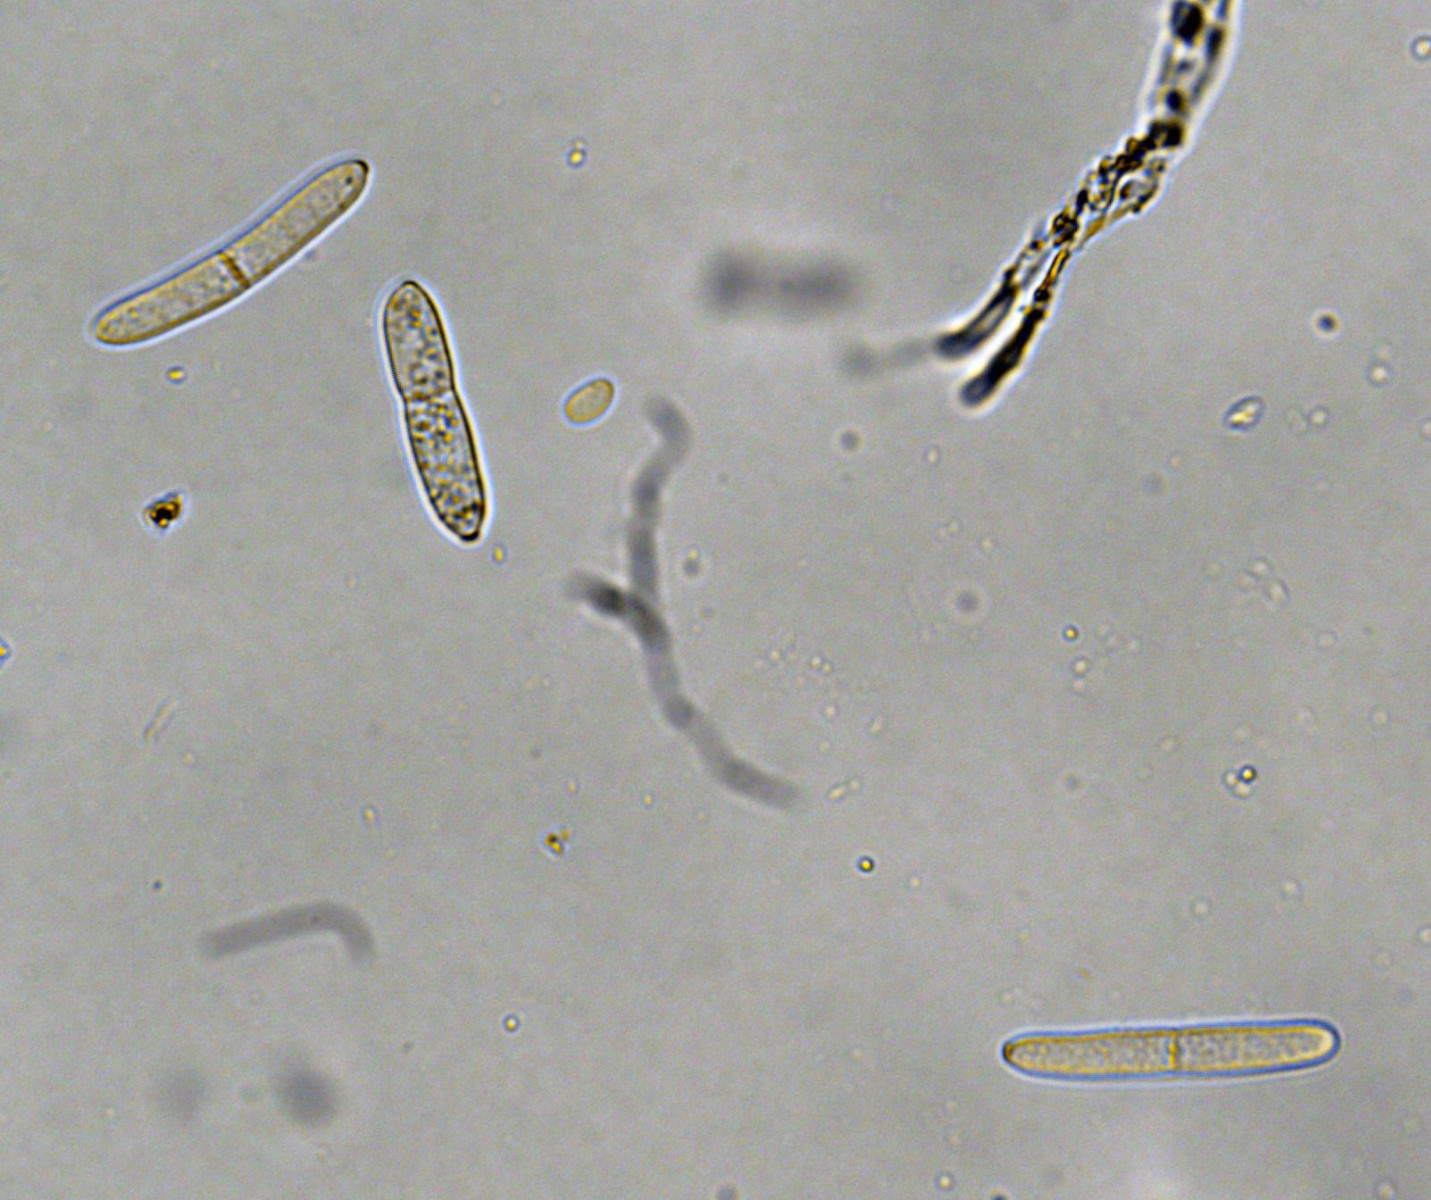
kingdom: Fungi
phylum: Ascomycota
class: Dothideomycetes
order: Mycosphaerellales
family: Mycosphaerellaceae
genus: Ramularia
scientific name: Ramularia sambucina
